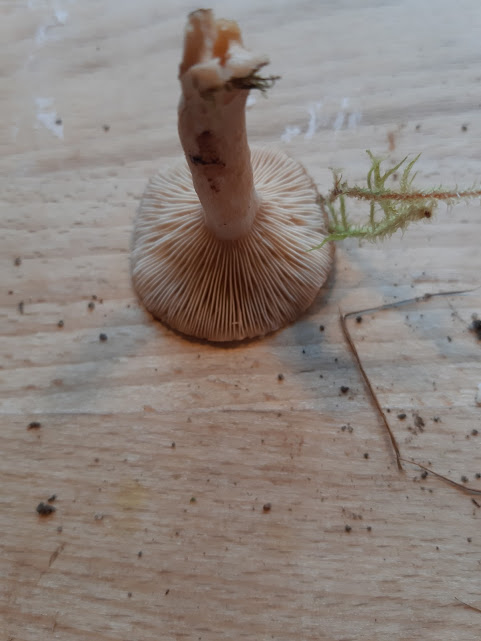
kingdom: Fungi
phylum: Basidiomycota
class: Agaricomycetes
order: Russulales
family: Russulaceae
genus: Lactarius
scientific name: Lactarius glyciosmus
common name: kokos-mælkehat
